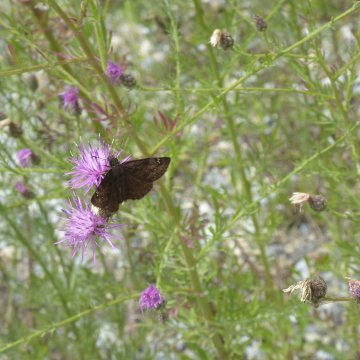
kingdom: Animalia
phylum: Arthropoda
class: Insecta
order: Lepidoptera
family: Hesperiidae
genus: Gesta
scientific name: Gesta
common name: Wild Indigo Duskywing
